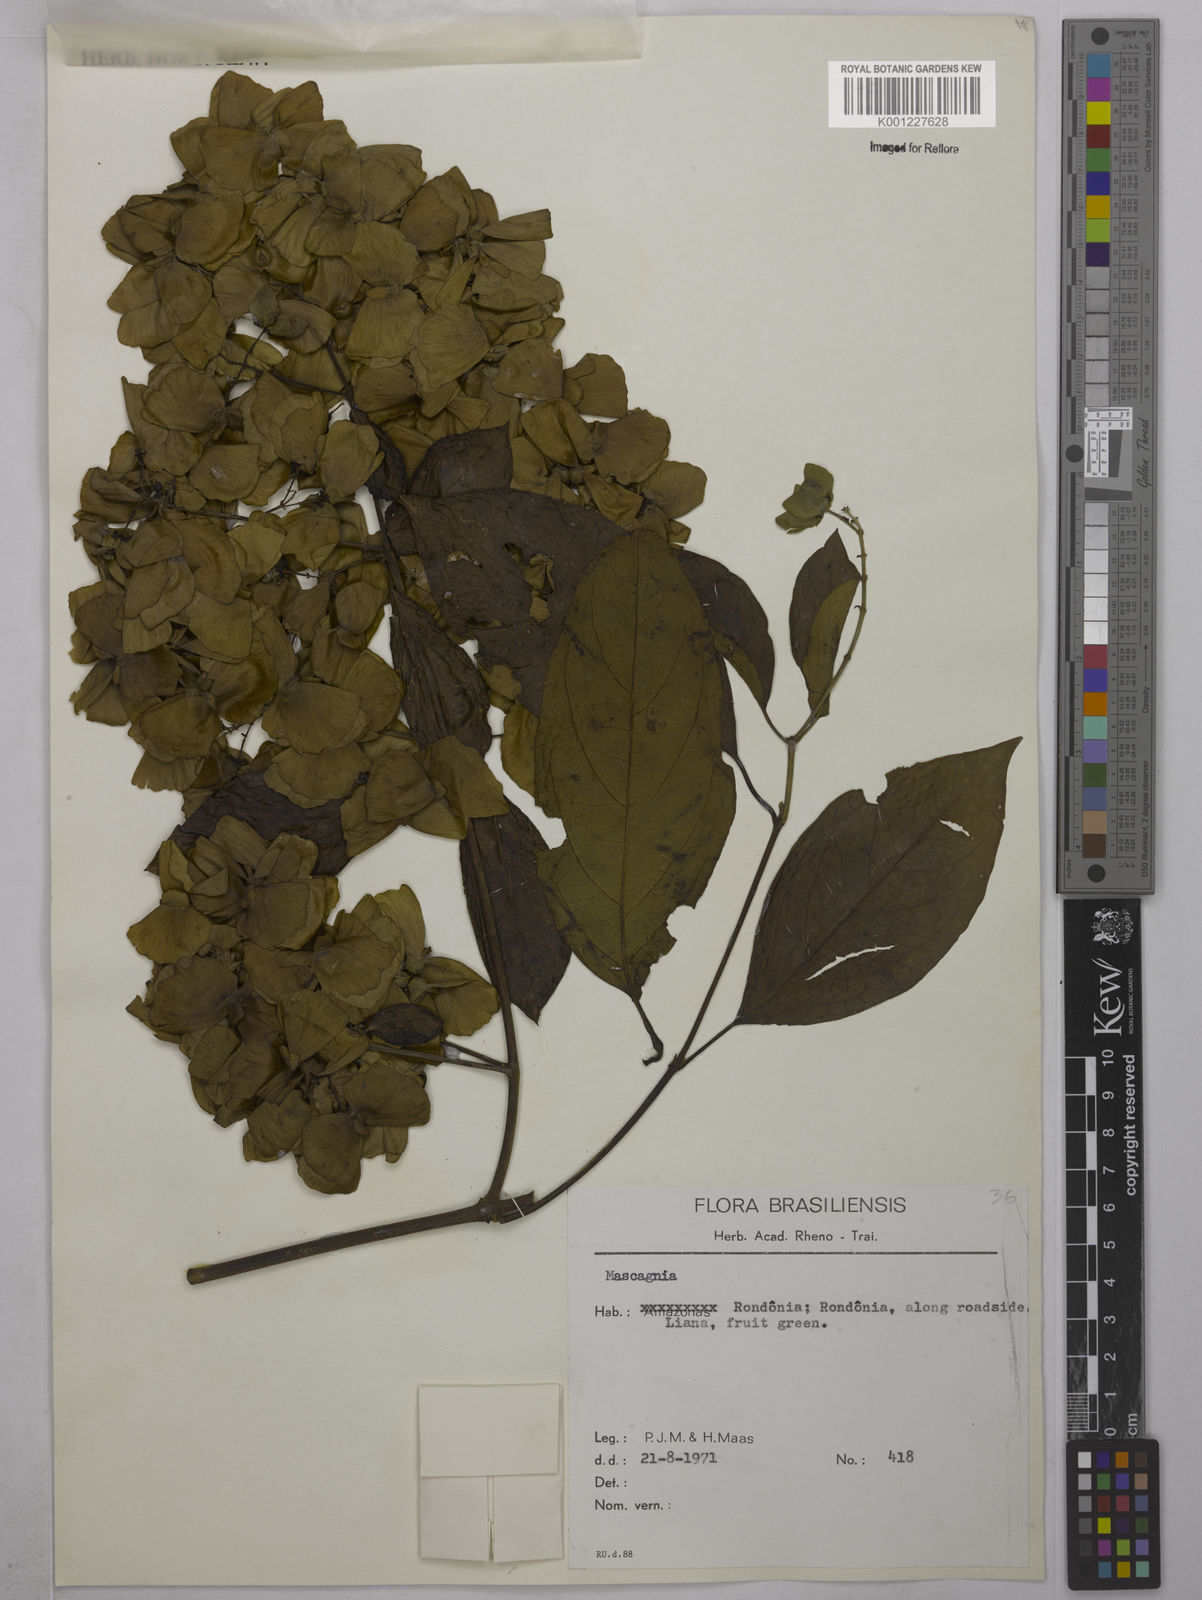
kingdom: Plantae
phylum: Tracheophyta
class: Magnoliopsida
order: Malpighiales
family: Malpighiaceae
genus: Mascagnia
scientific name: Mascagnia
